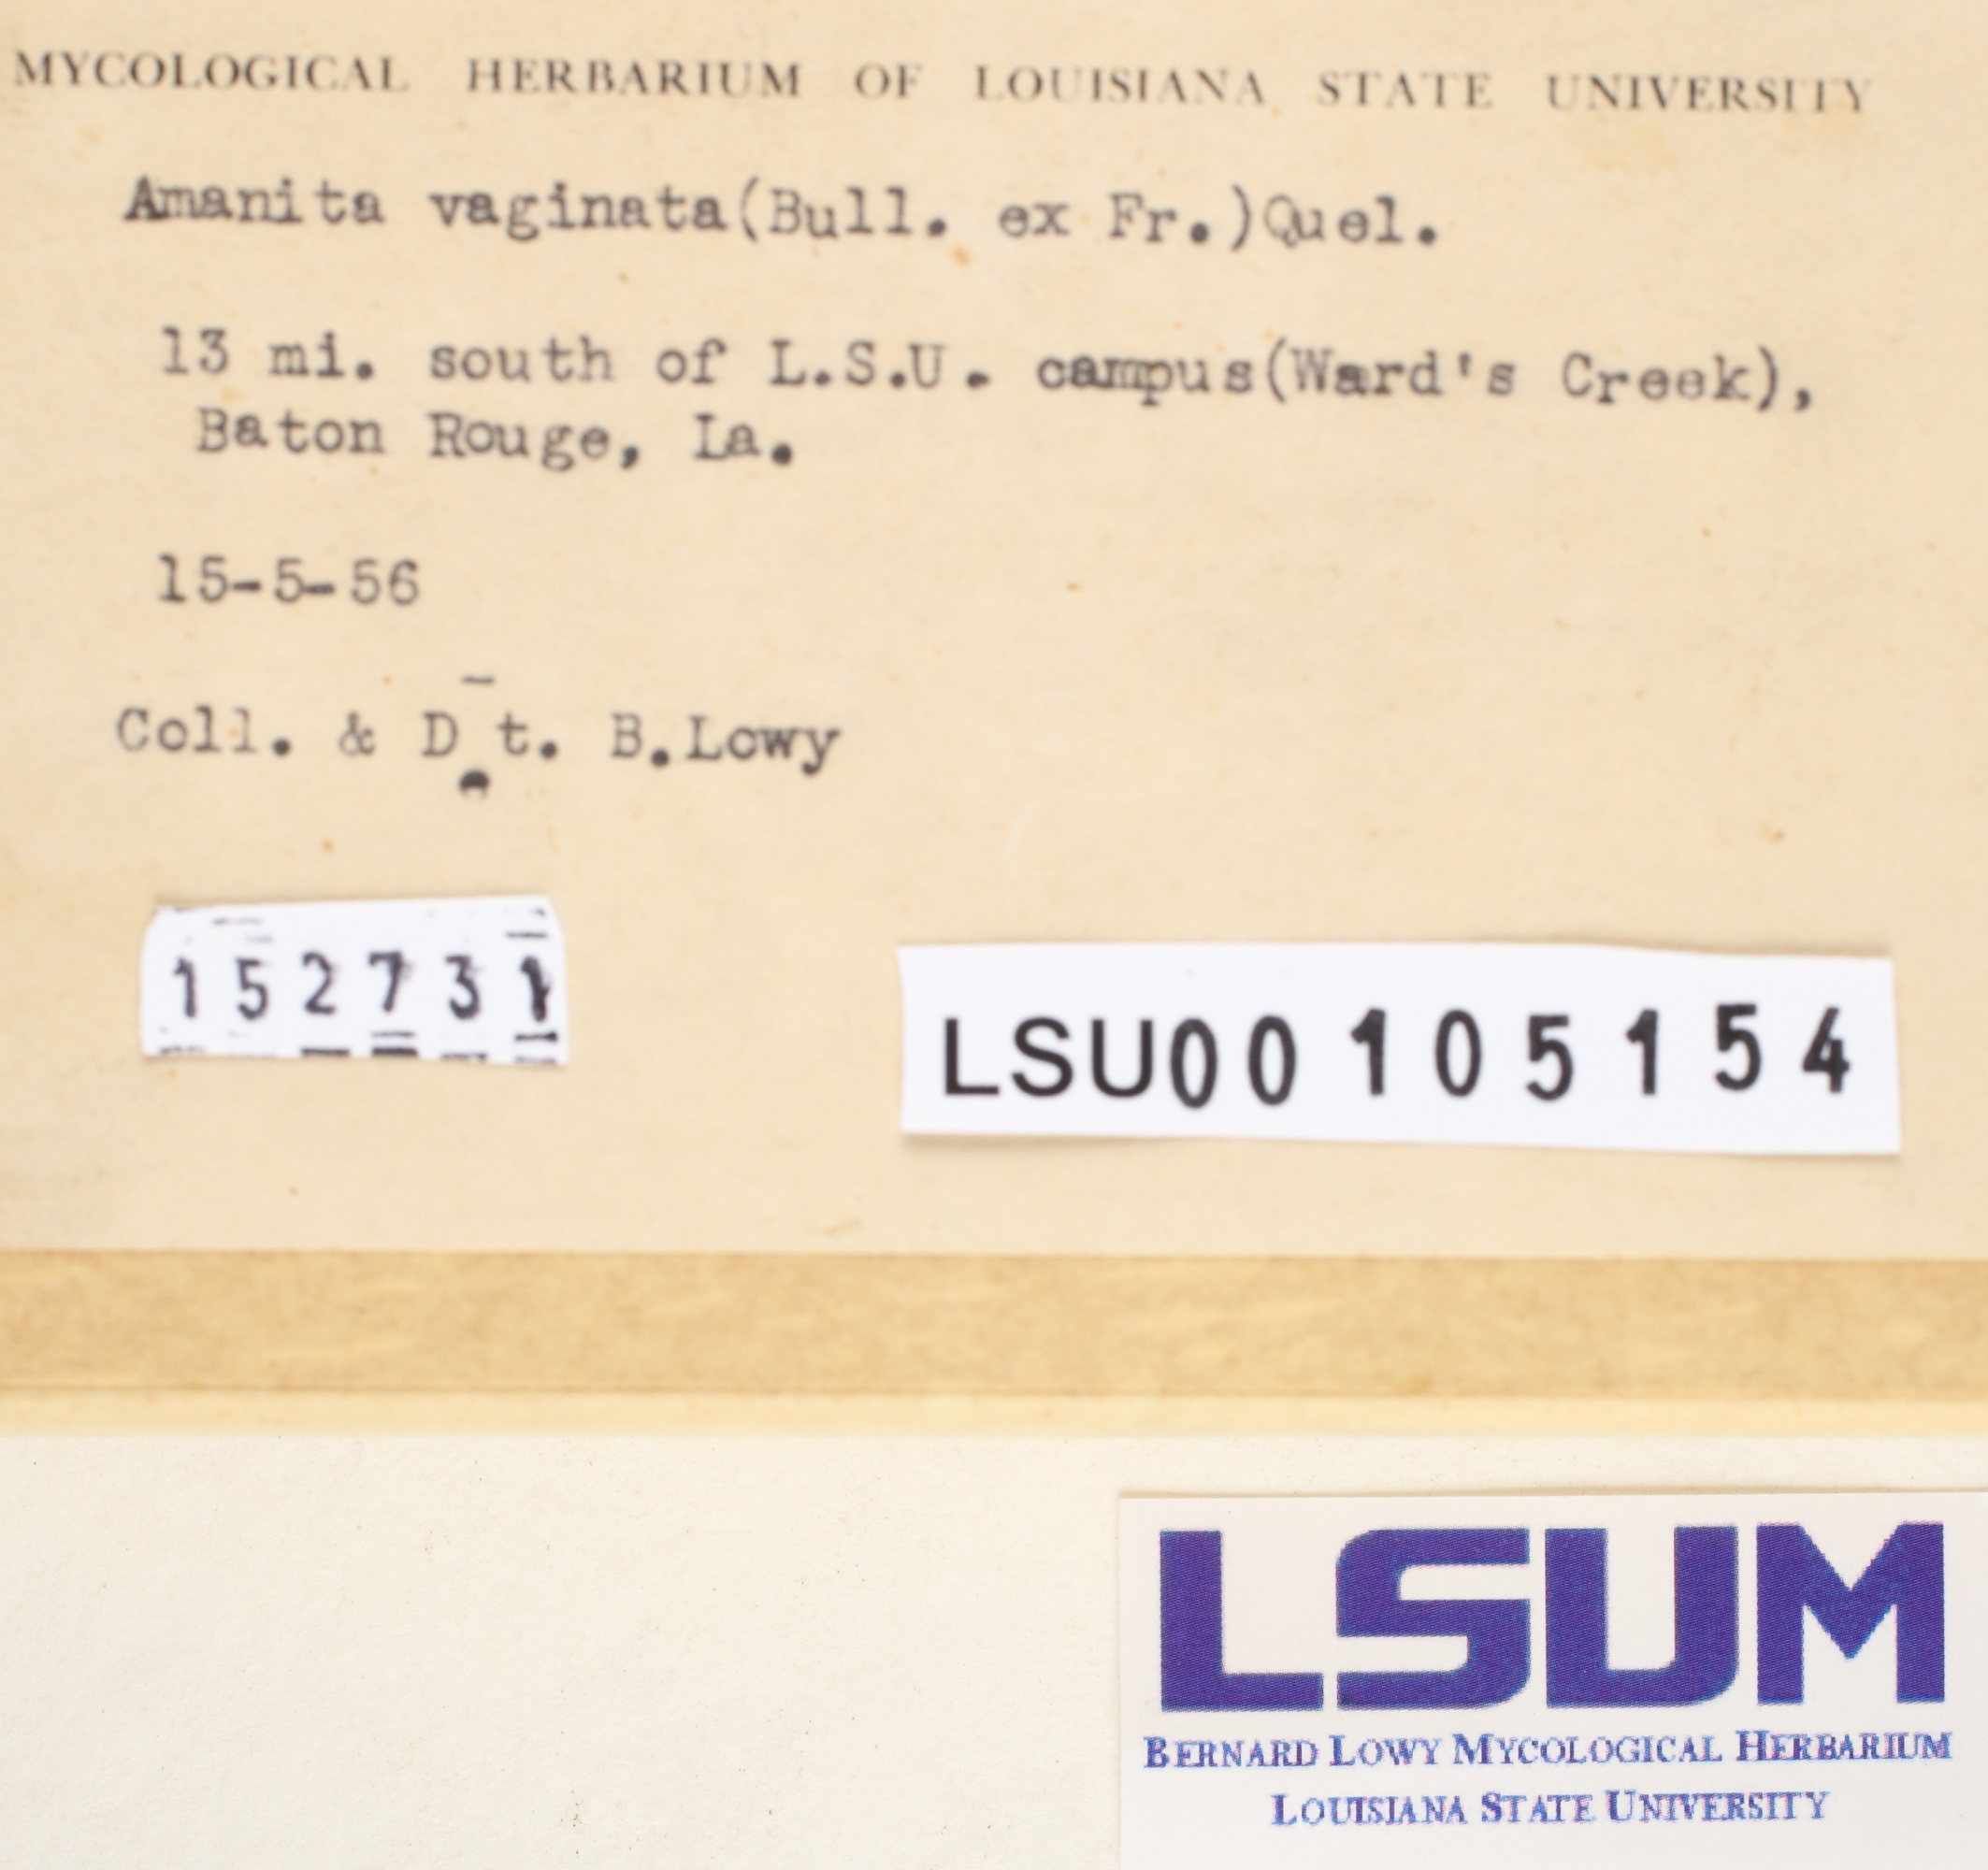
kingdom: Fungi
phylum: Basidiomycota
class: Agaricomycetes
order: Agaricales
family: Amanitaceae
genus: Amanita
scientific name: Amanita vaginata
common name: Grisette
